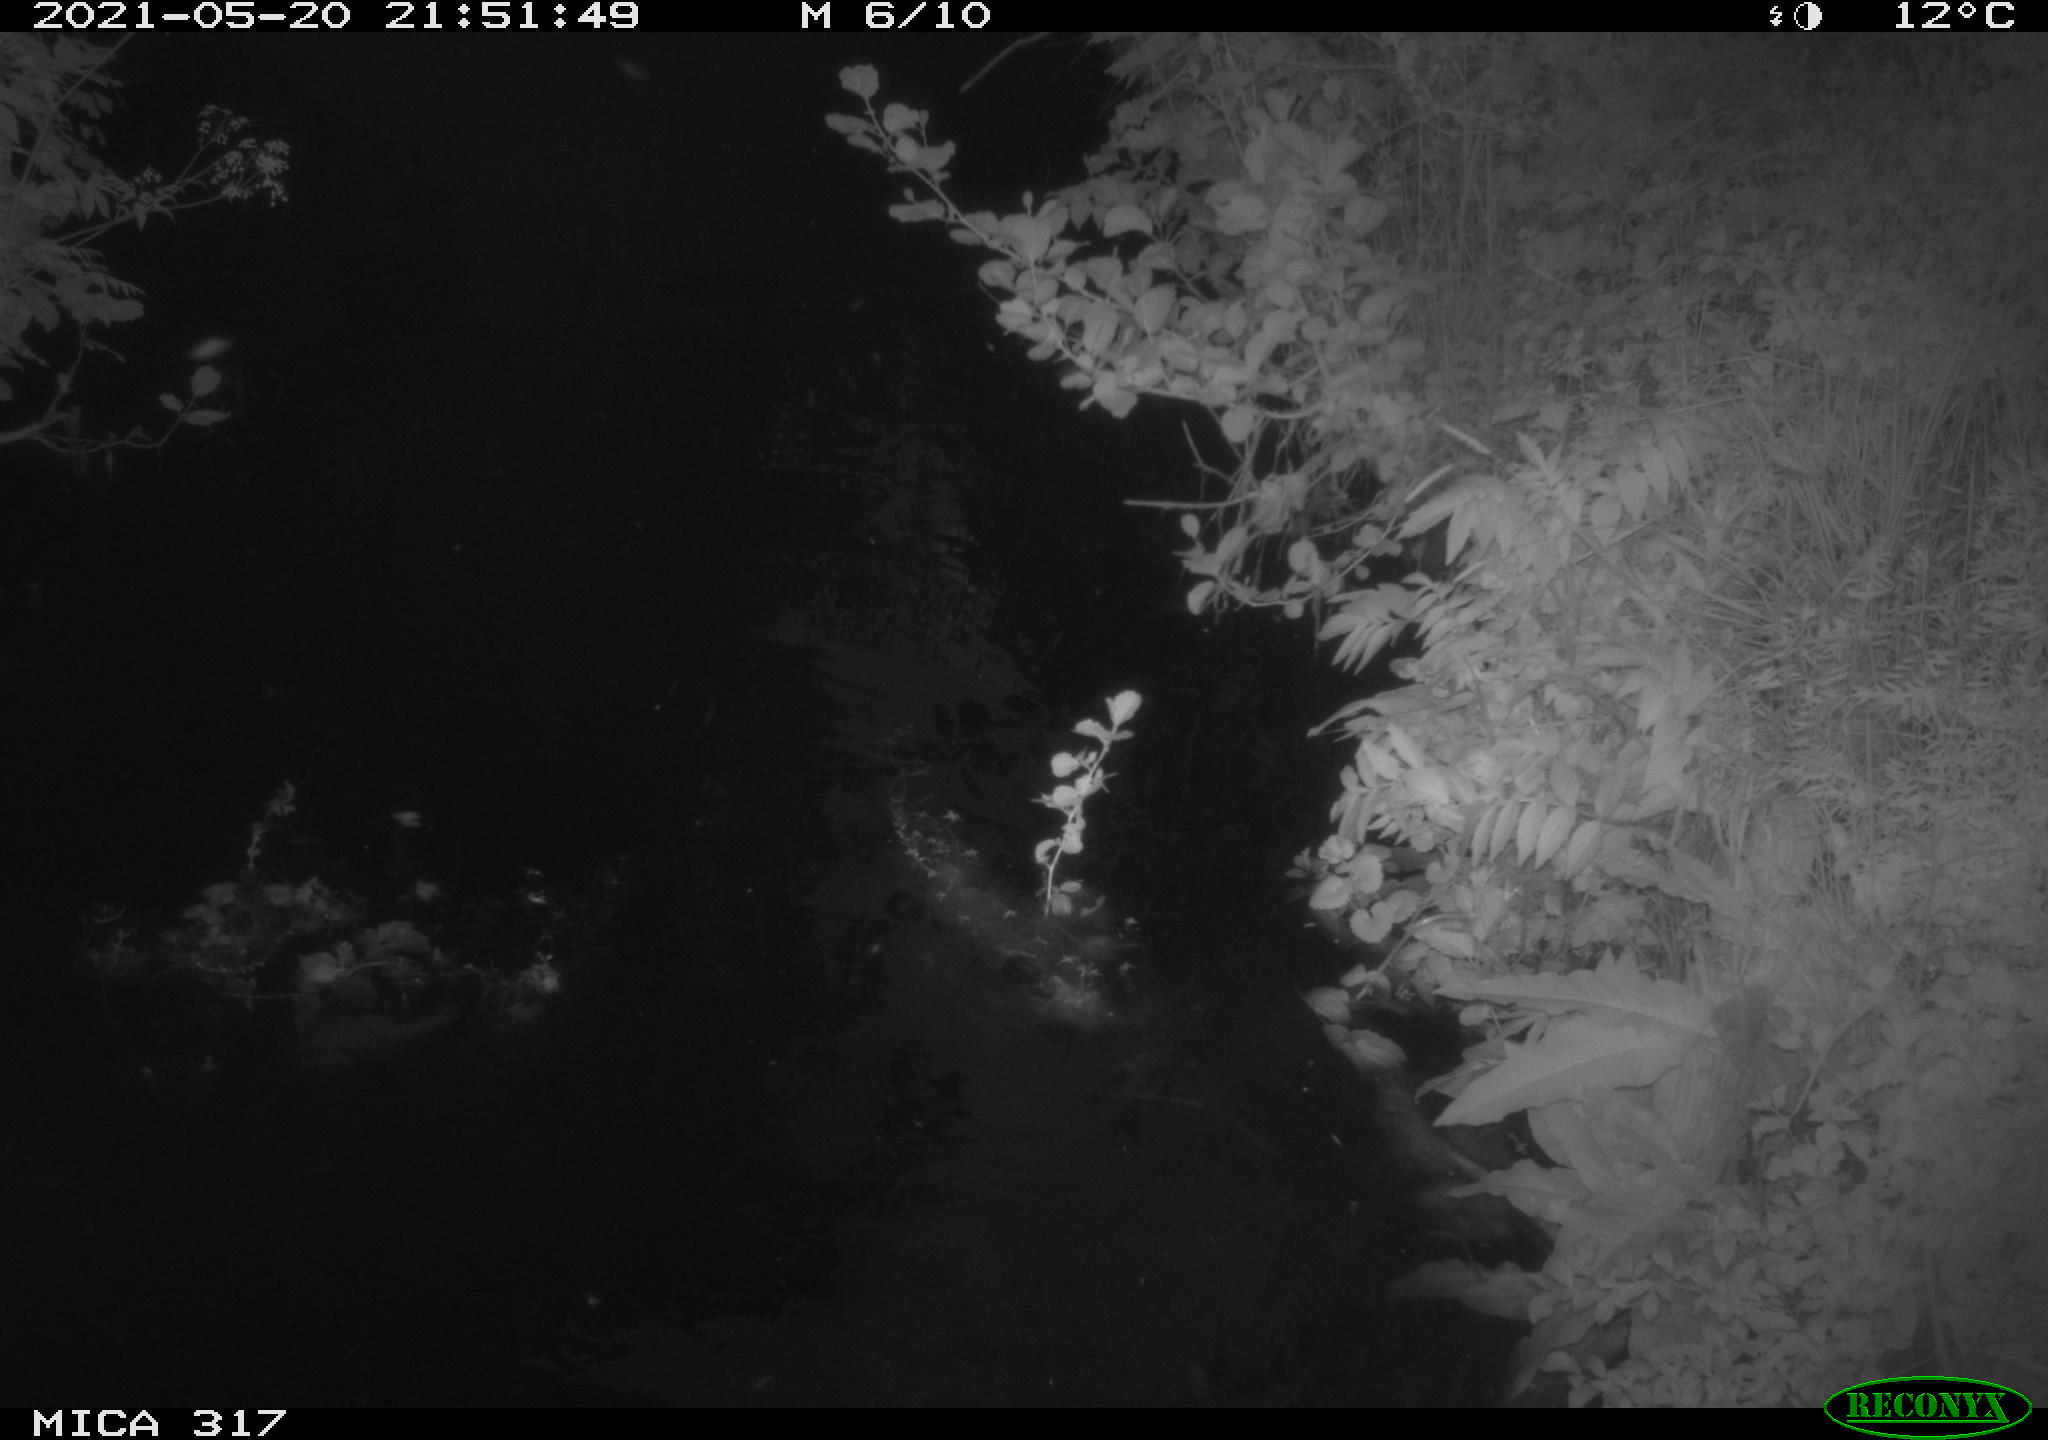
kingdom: Animalia
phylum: Chordata
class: Aves
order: Anseriformes
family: Anatidae
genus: Anas
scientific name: Anas
